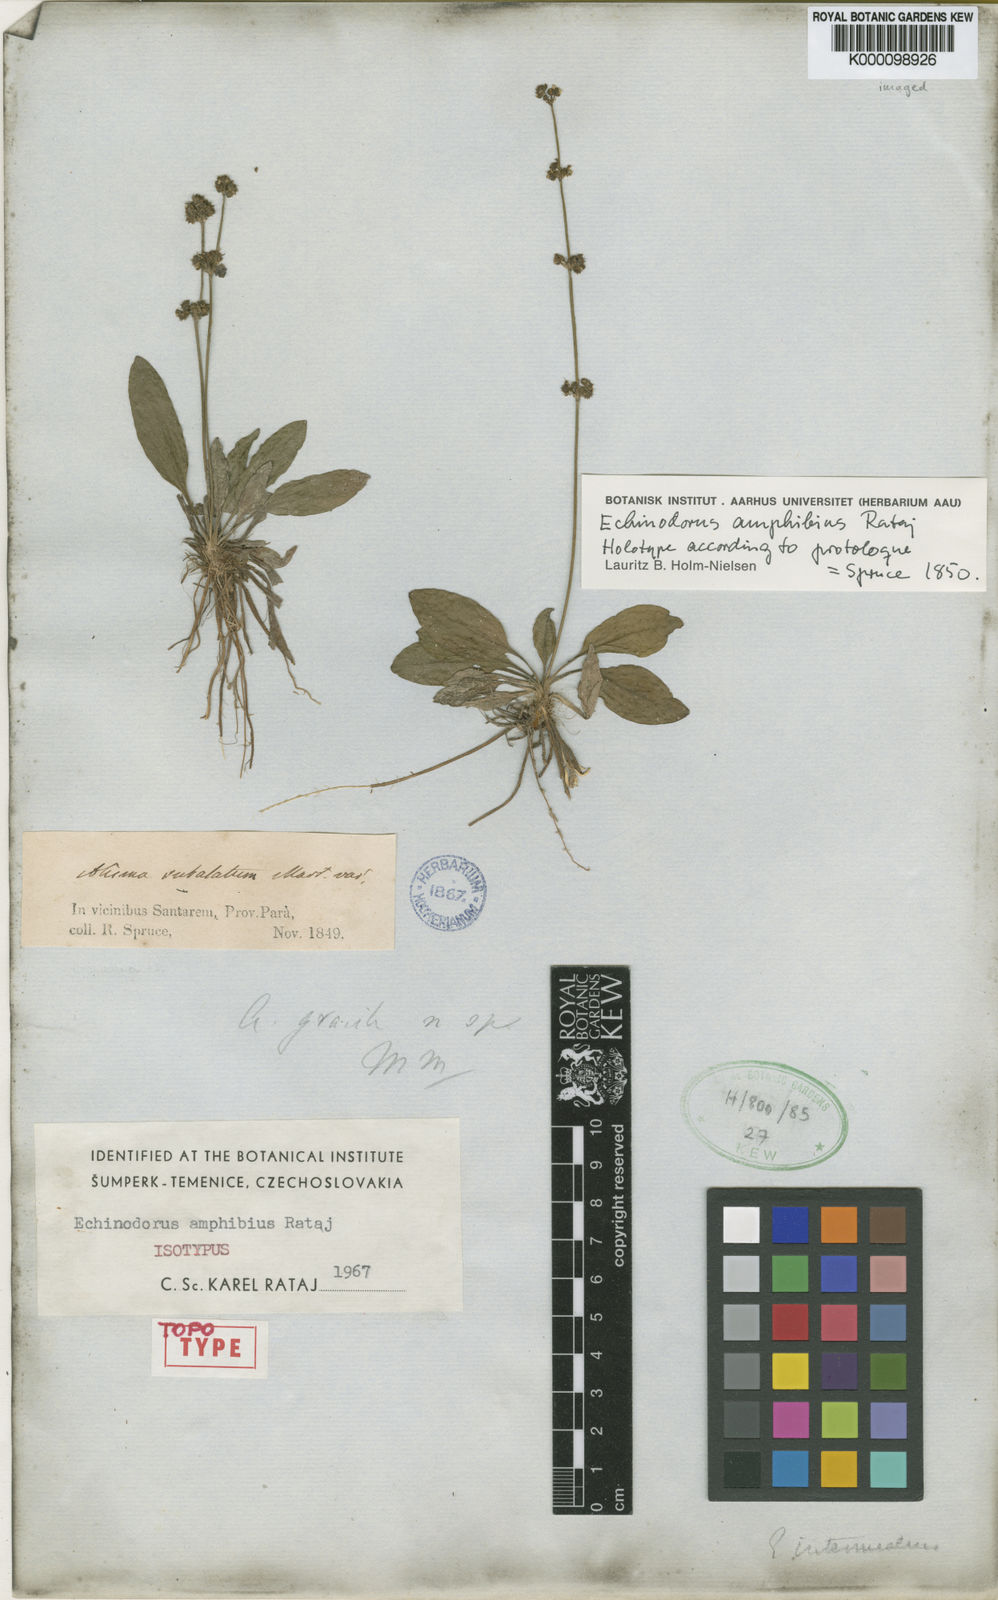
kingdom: Plantae
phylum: Tracheophyta
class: Liliopsida
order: Alismatales
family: Alismataceae
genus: Aquarius
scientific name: Aquarius grisebachii
